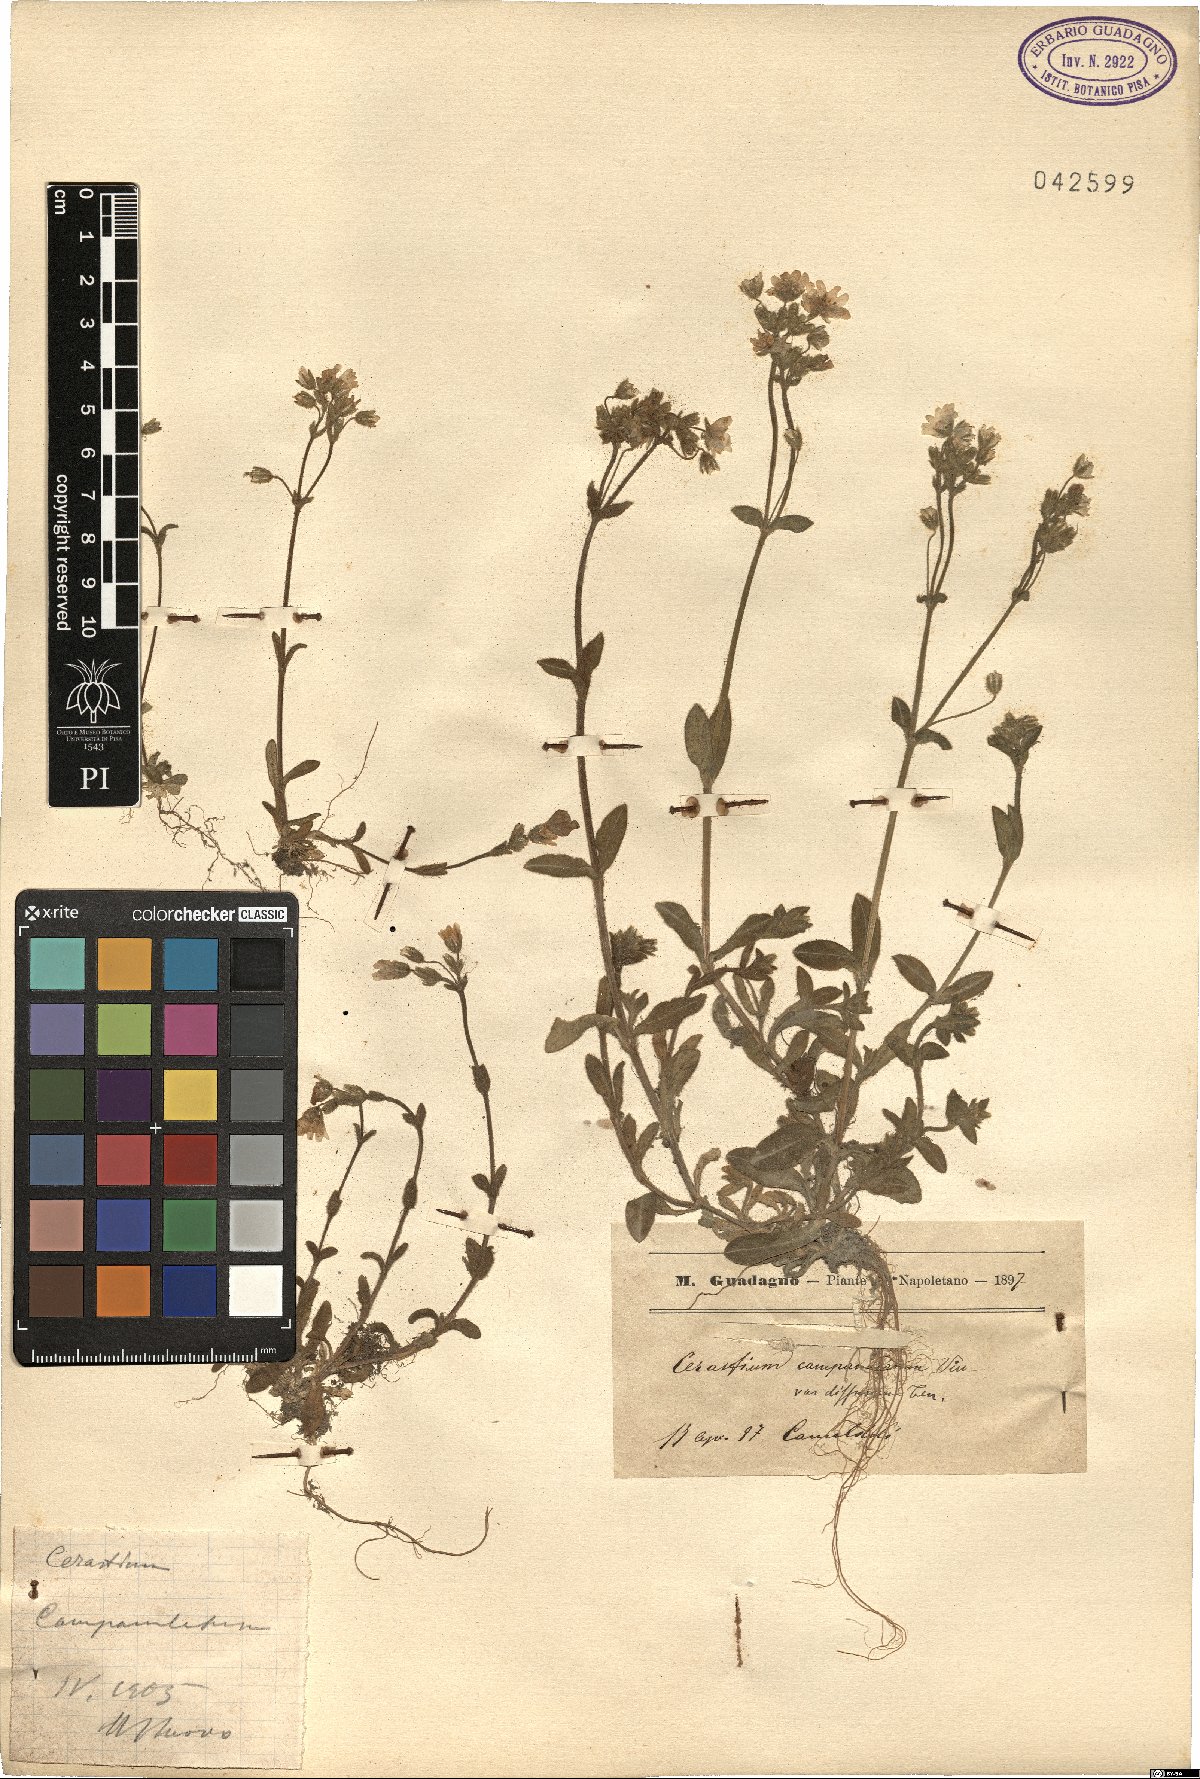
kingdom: Plantae
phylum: Tracheophyta
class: Magnoliopsida
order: Caryophyllales
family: Caryophyllaceae
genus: Cerastium
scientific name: Cerastium ligusticum
